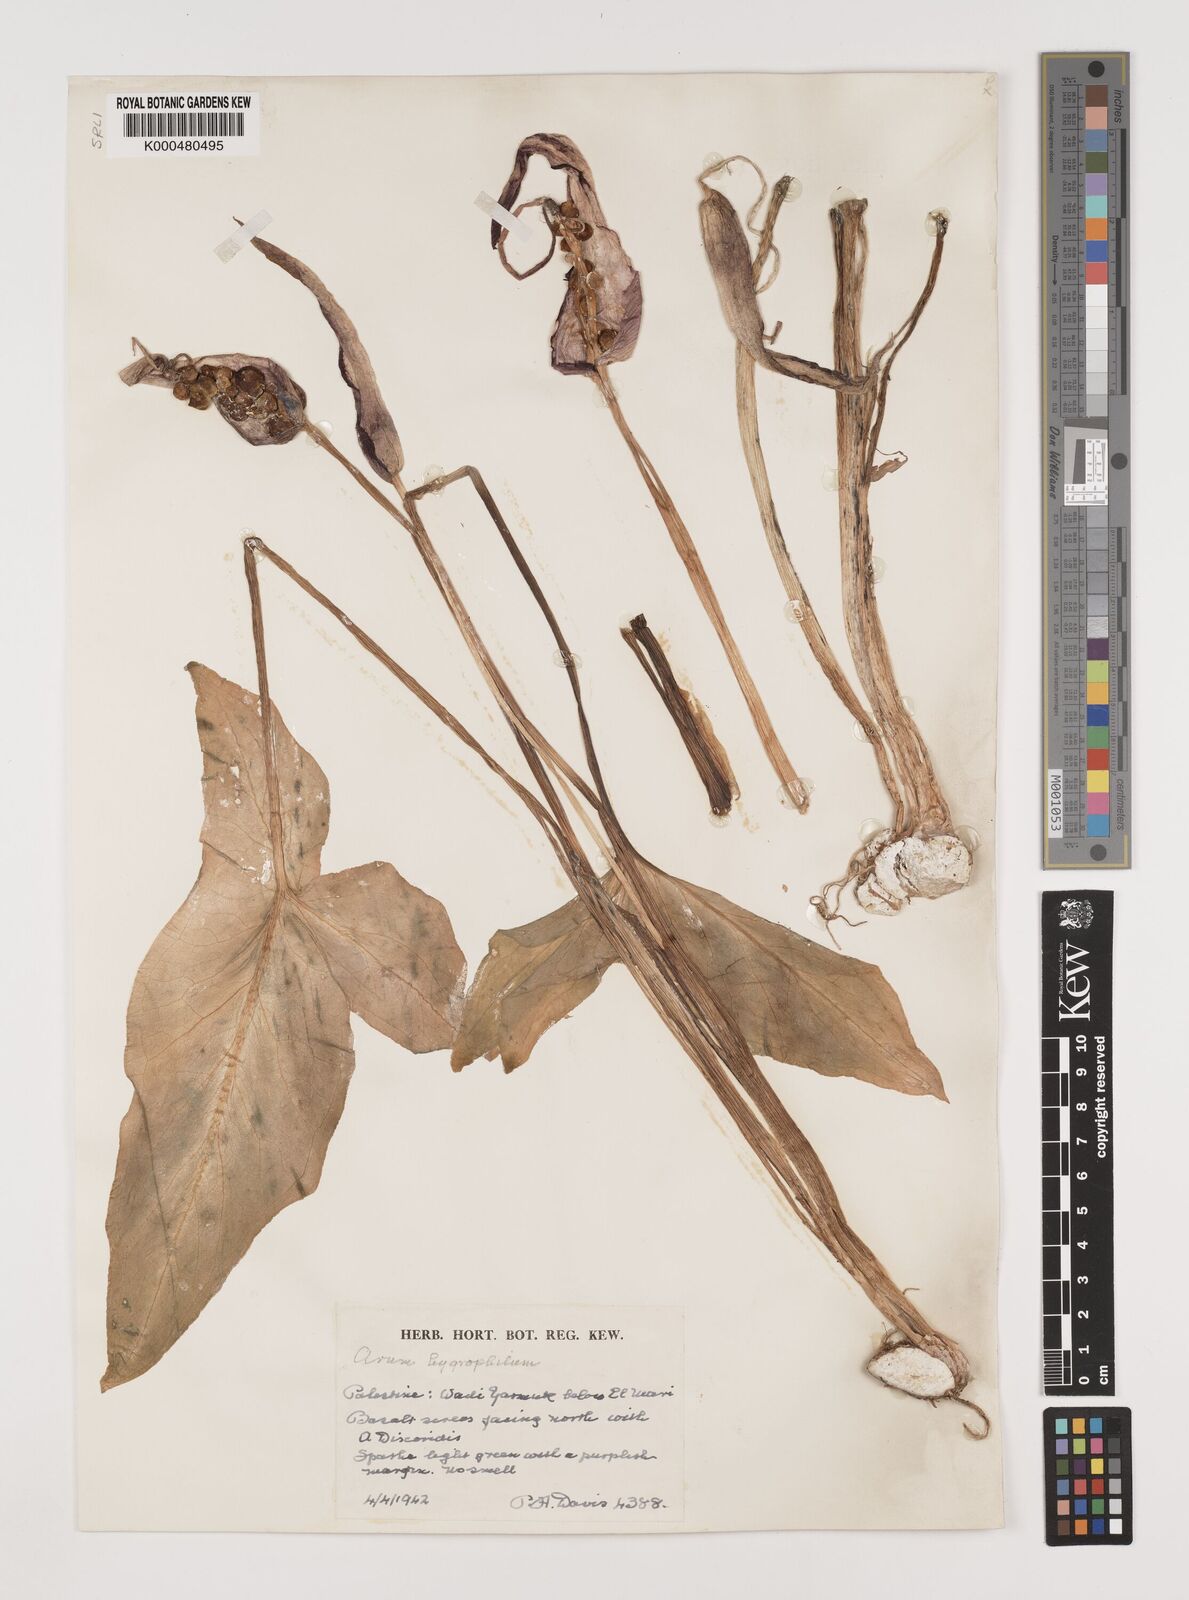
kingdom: Plantae
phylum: Tracheophyta
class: Liliopsida
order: Alismatales
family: Araceae
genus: Arum
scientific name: Arum hygrophilum
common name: Water arum
